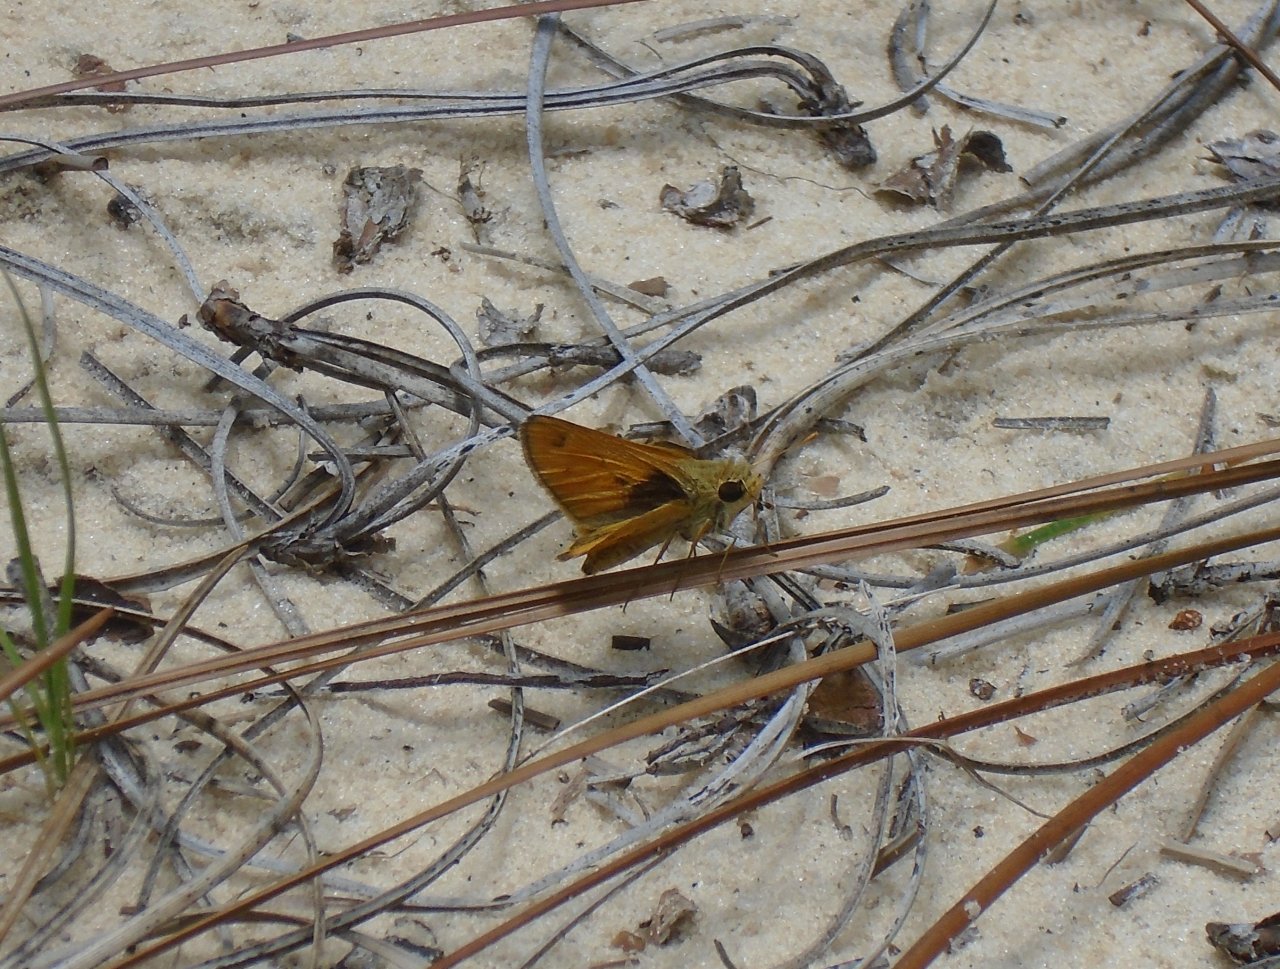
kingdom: Animalia
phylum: Arthropoda
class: Insecta
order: Lepidoptera
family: Hesperiidae
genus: Polites
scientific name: Polites vibex
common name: Whirlabout
